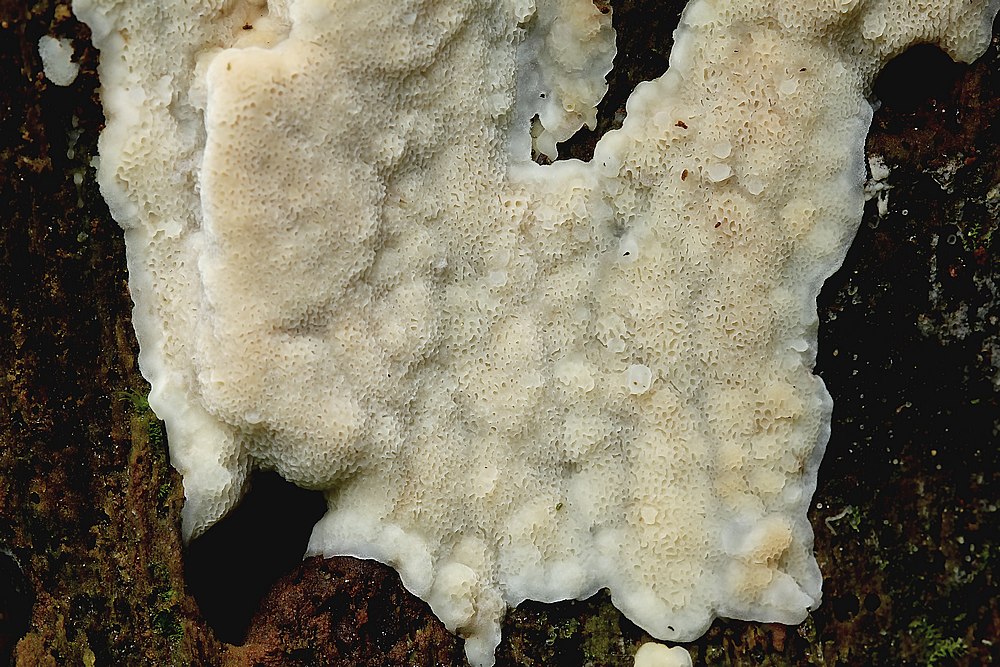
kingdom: Fungi
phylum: Basidiomycota
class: Agaricomycetes
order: Polyporales
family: Meruliaceae
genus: Physisporinus
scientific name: Physisporinus
